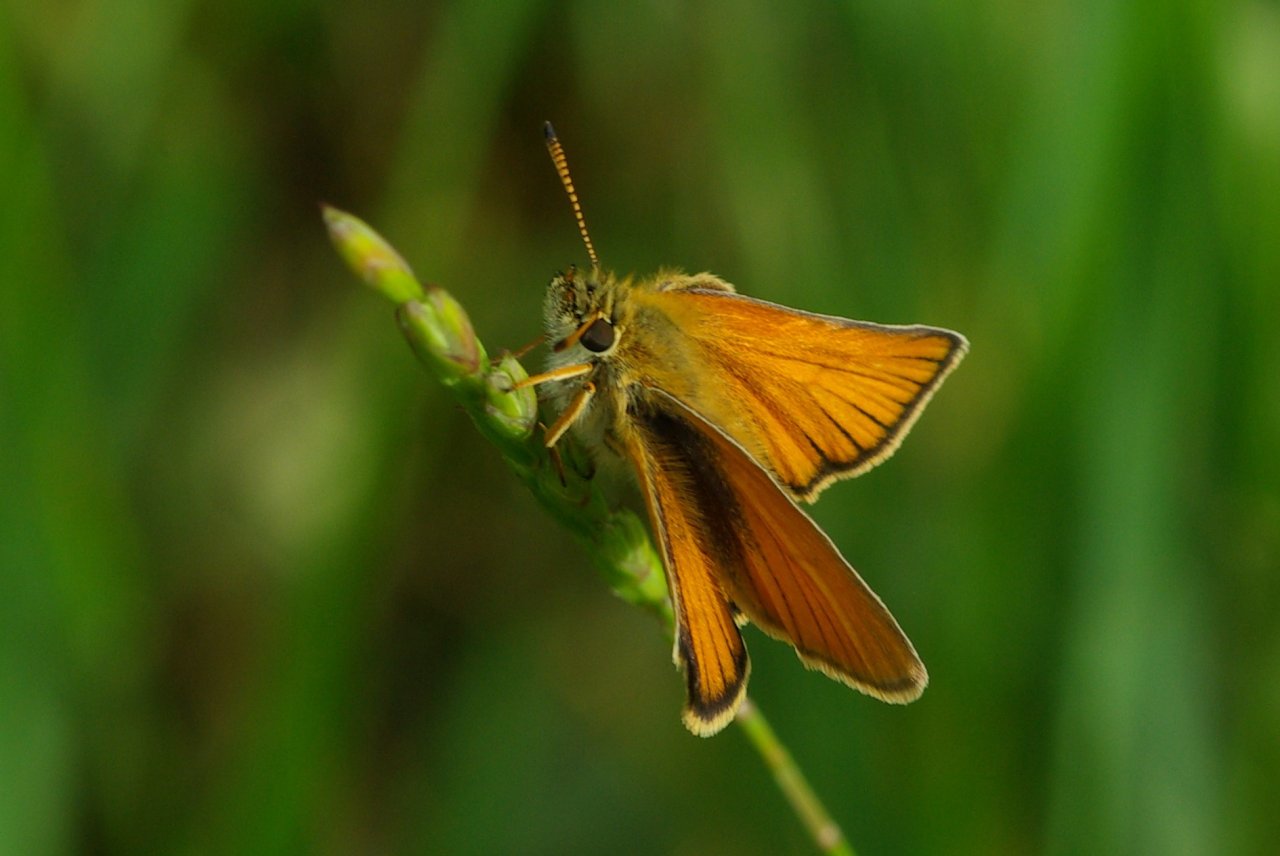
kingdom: Animalia
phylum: Arthropoda
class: Insecta
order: Lepidoptera
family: Hesperiidae
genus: Thymelicus
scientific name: Thymelicus lineola
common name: European Skipper
